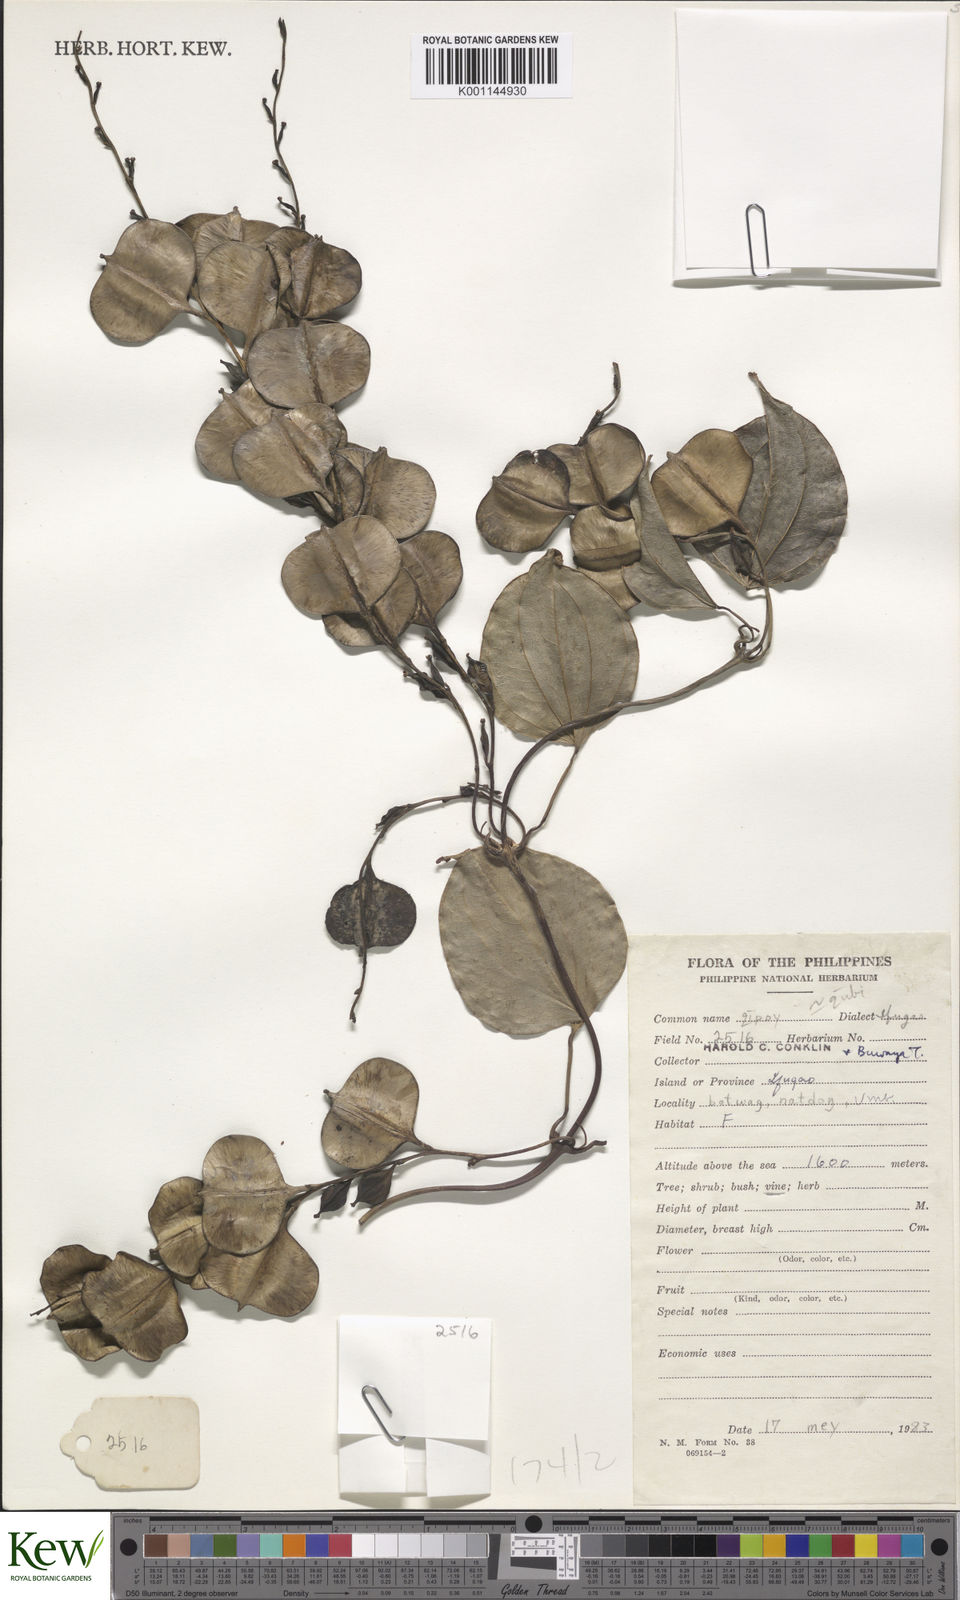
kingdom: Plantae
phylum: Tracheophyta
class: Liliopsida
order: Dioscoreales
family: Dioscoreaceae
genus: Dioscorea
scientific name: Dioscorea
